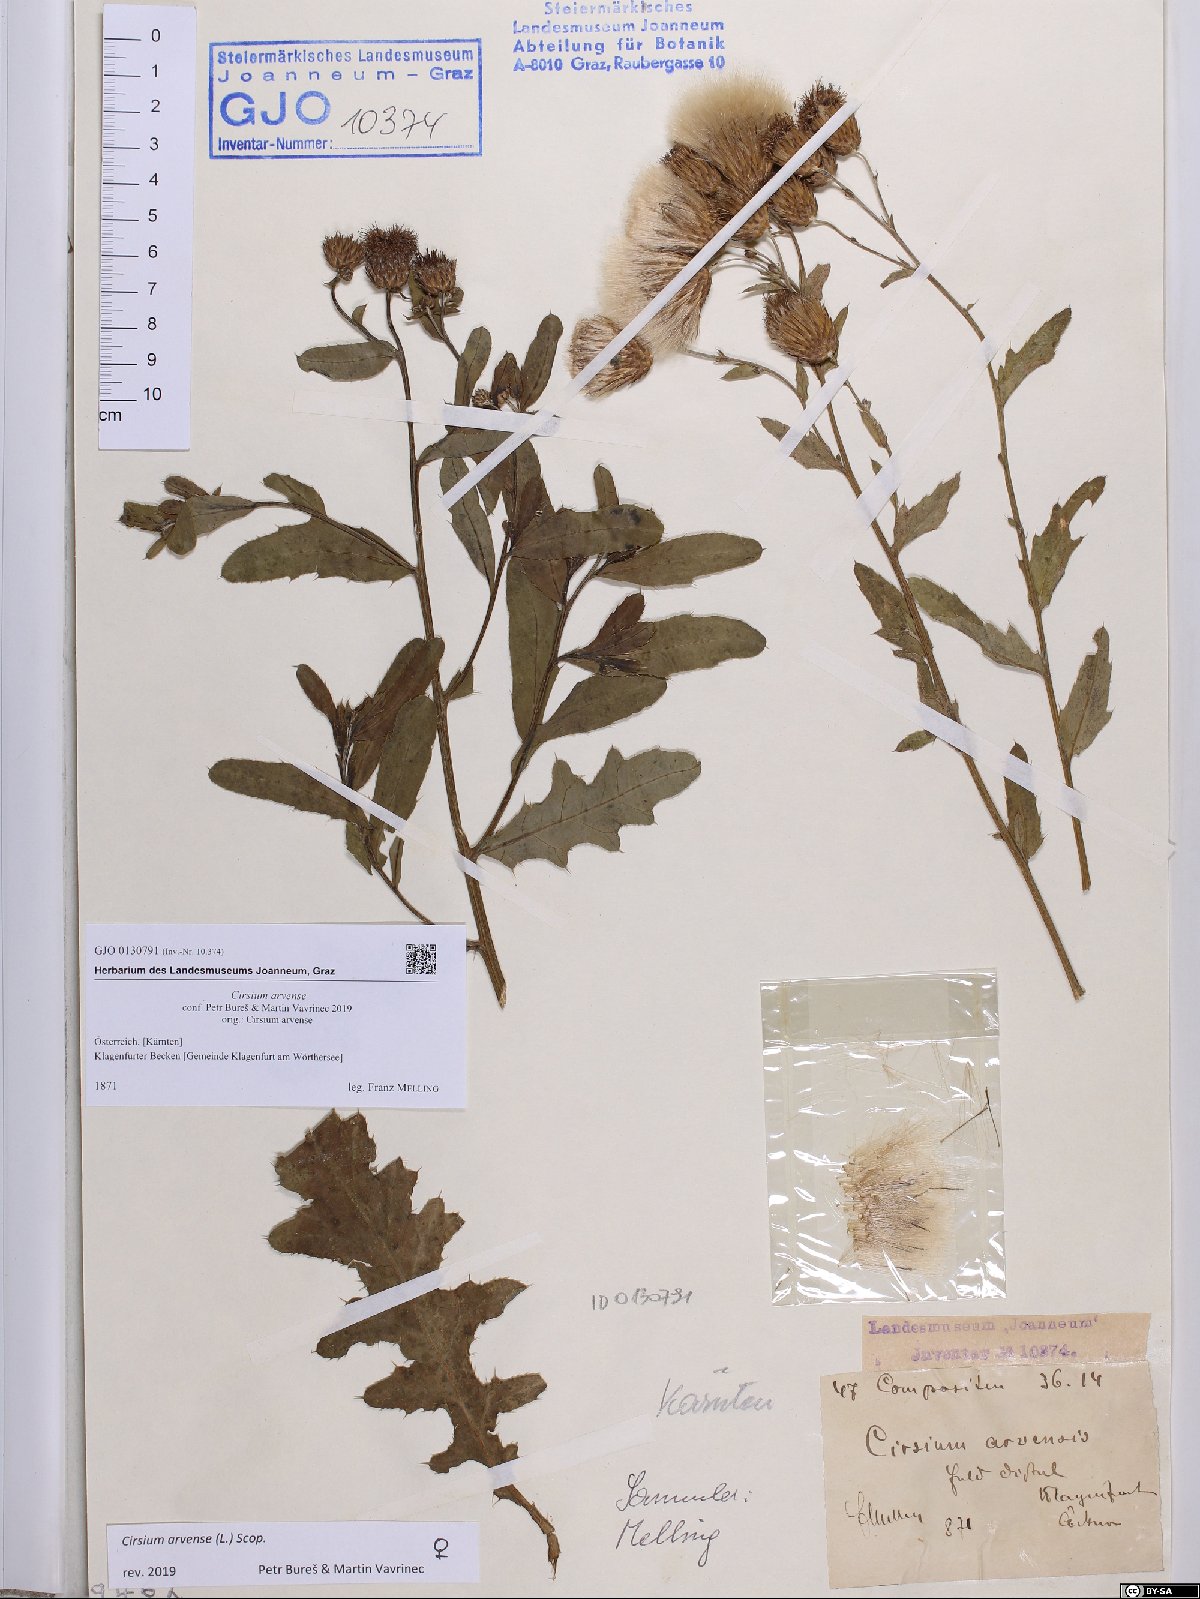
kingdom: Plantae
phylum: Tracheophyta
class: Magnoliopsida
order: Asterales
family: Asteraceae
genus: Cirsium
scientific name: Cirsium arvense
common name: Creeping thistle
